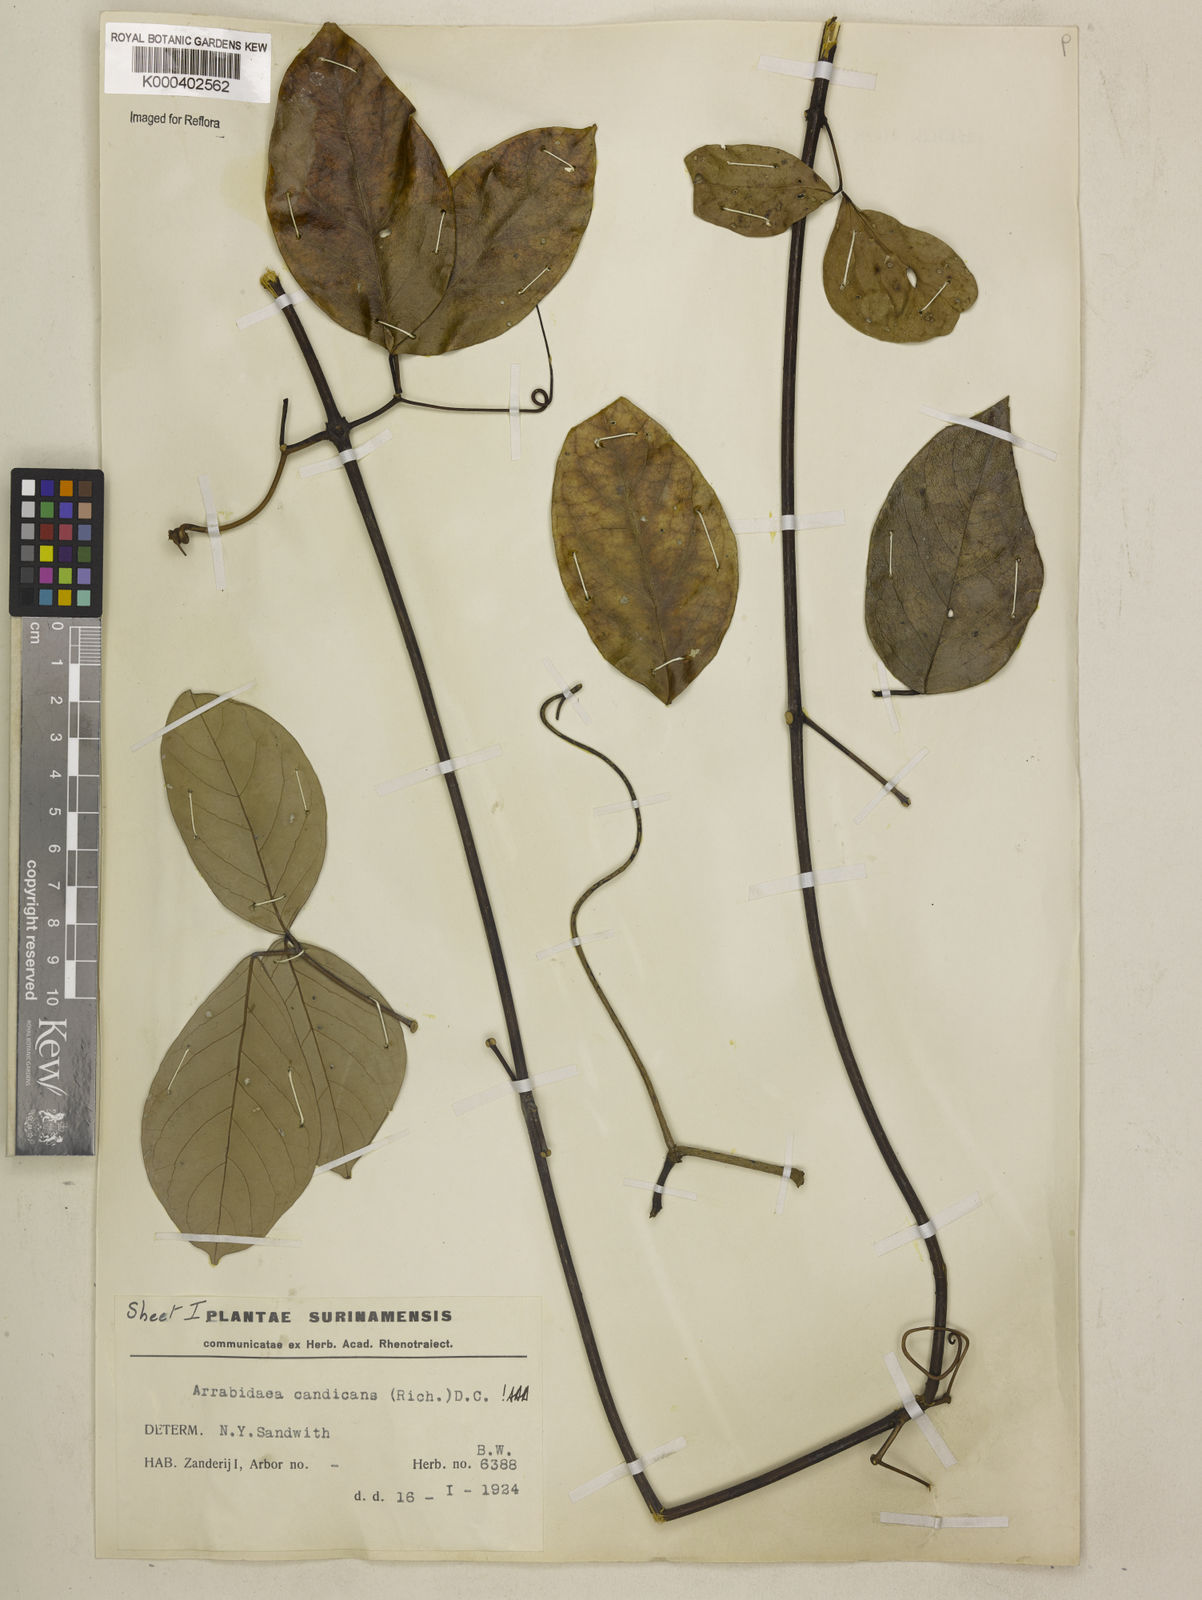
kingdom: Plantae
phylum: Tracheophyta
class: Magnoliopsida
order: Lamiales
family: Bignoniaceae
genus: Fridericia
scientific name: Fridericia candicans
